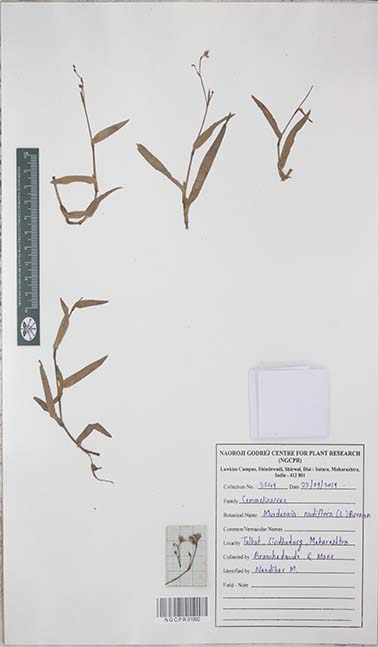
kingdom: Plantae
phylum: Tracheophyta
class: Liliopsida
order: Commelinales
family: Commelinaceae
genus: Murdannia
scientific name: Murdannia nudiflora
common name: Nakedstem dewflower
